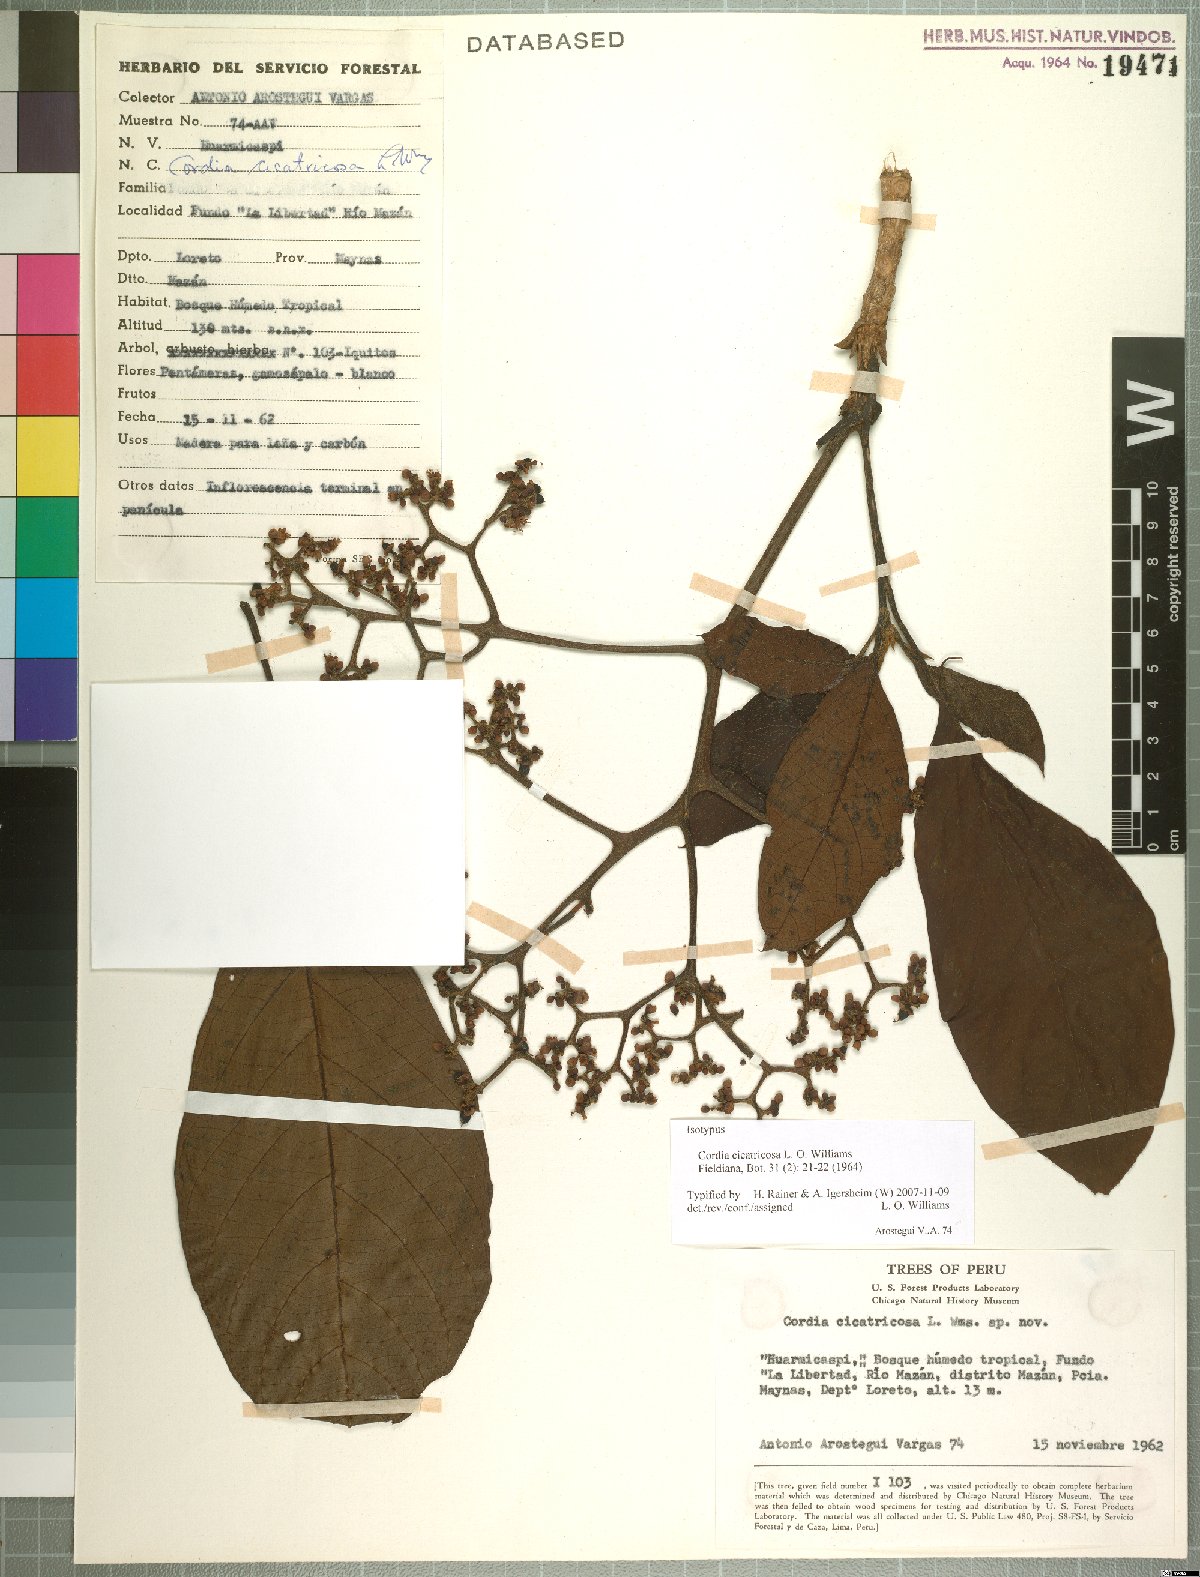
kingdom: Plantae
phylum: Tracheophyta
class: Magnoliopsida
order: Boraginales
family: Cordiaceae
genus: Cordia
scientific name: Cordia cicatricosa
